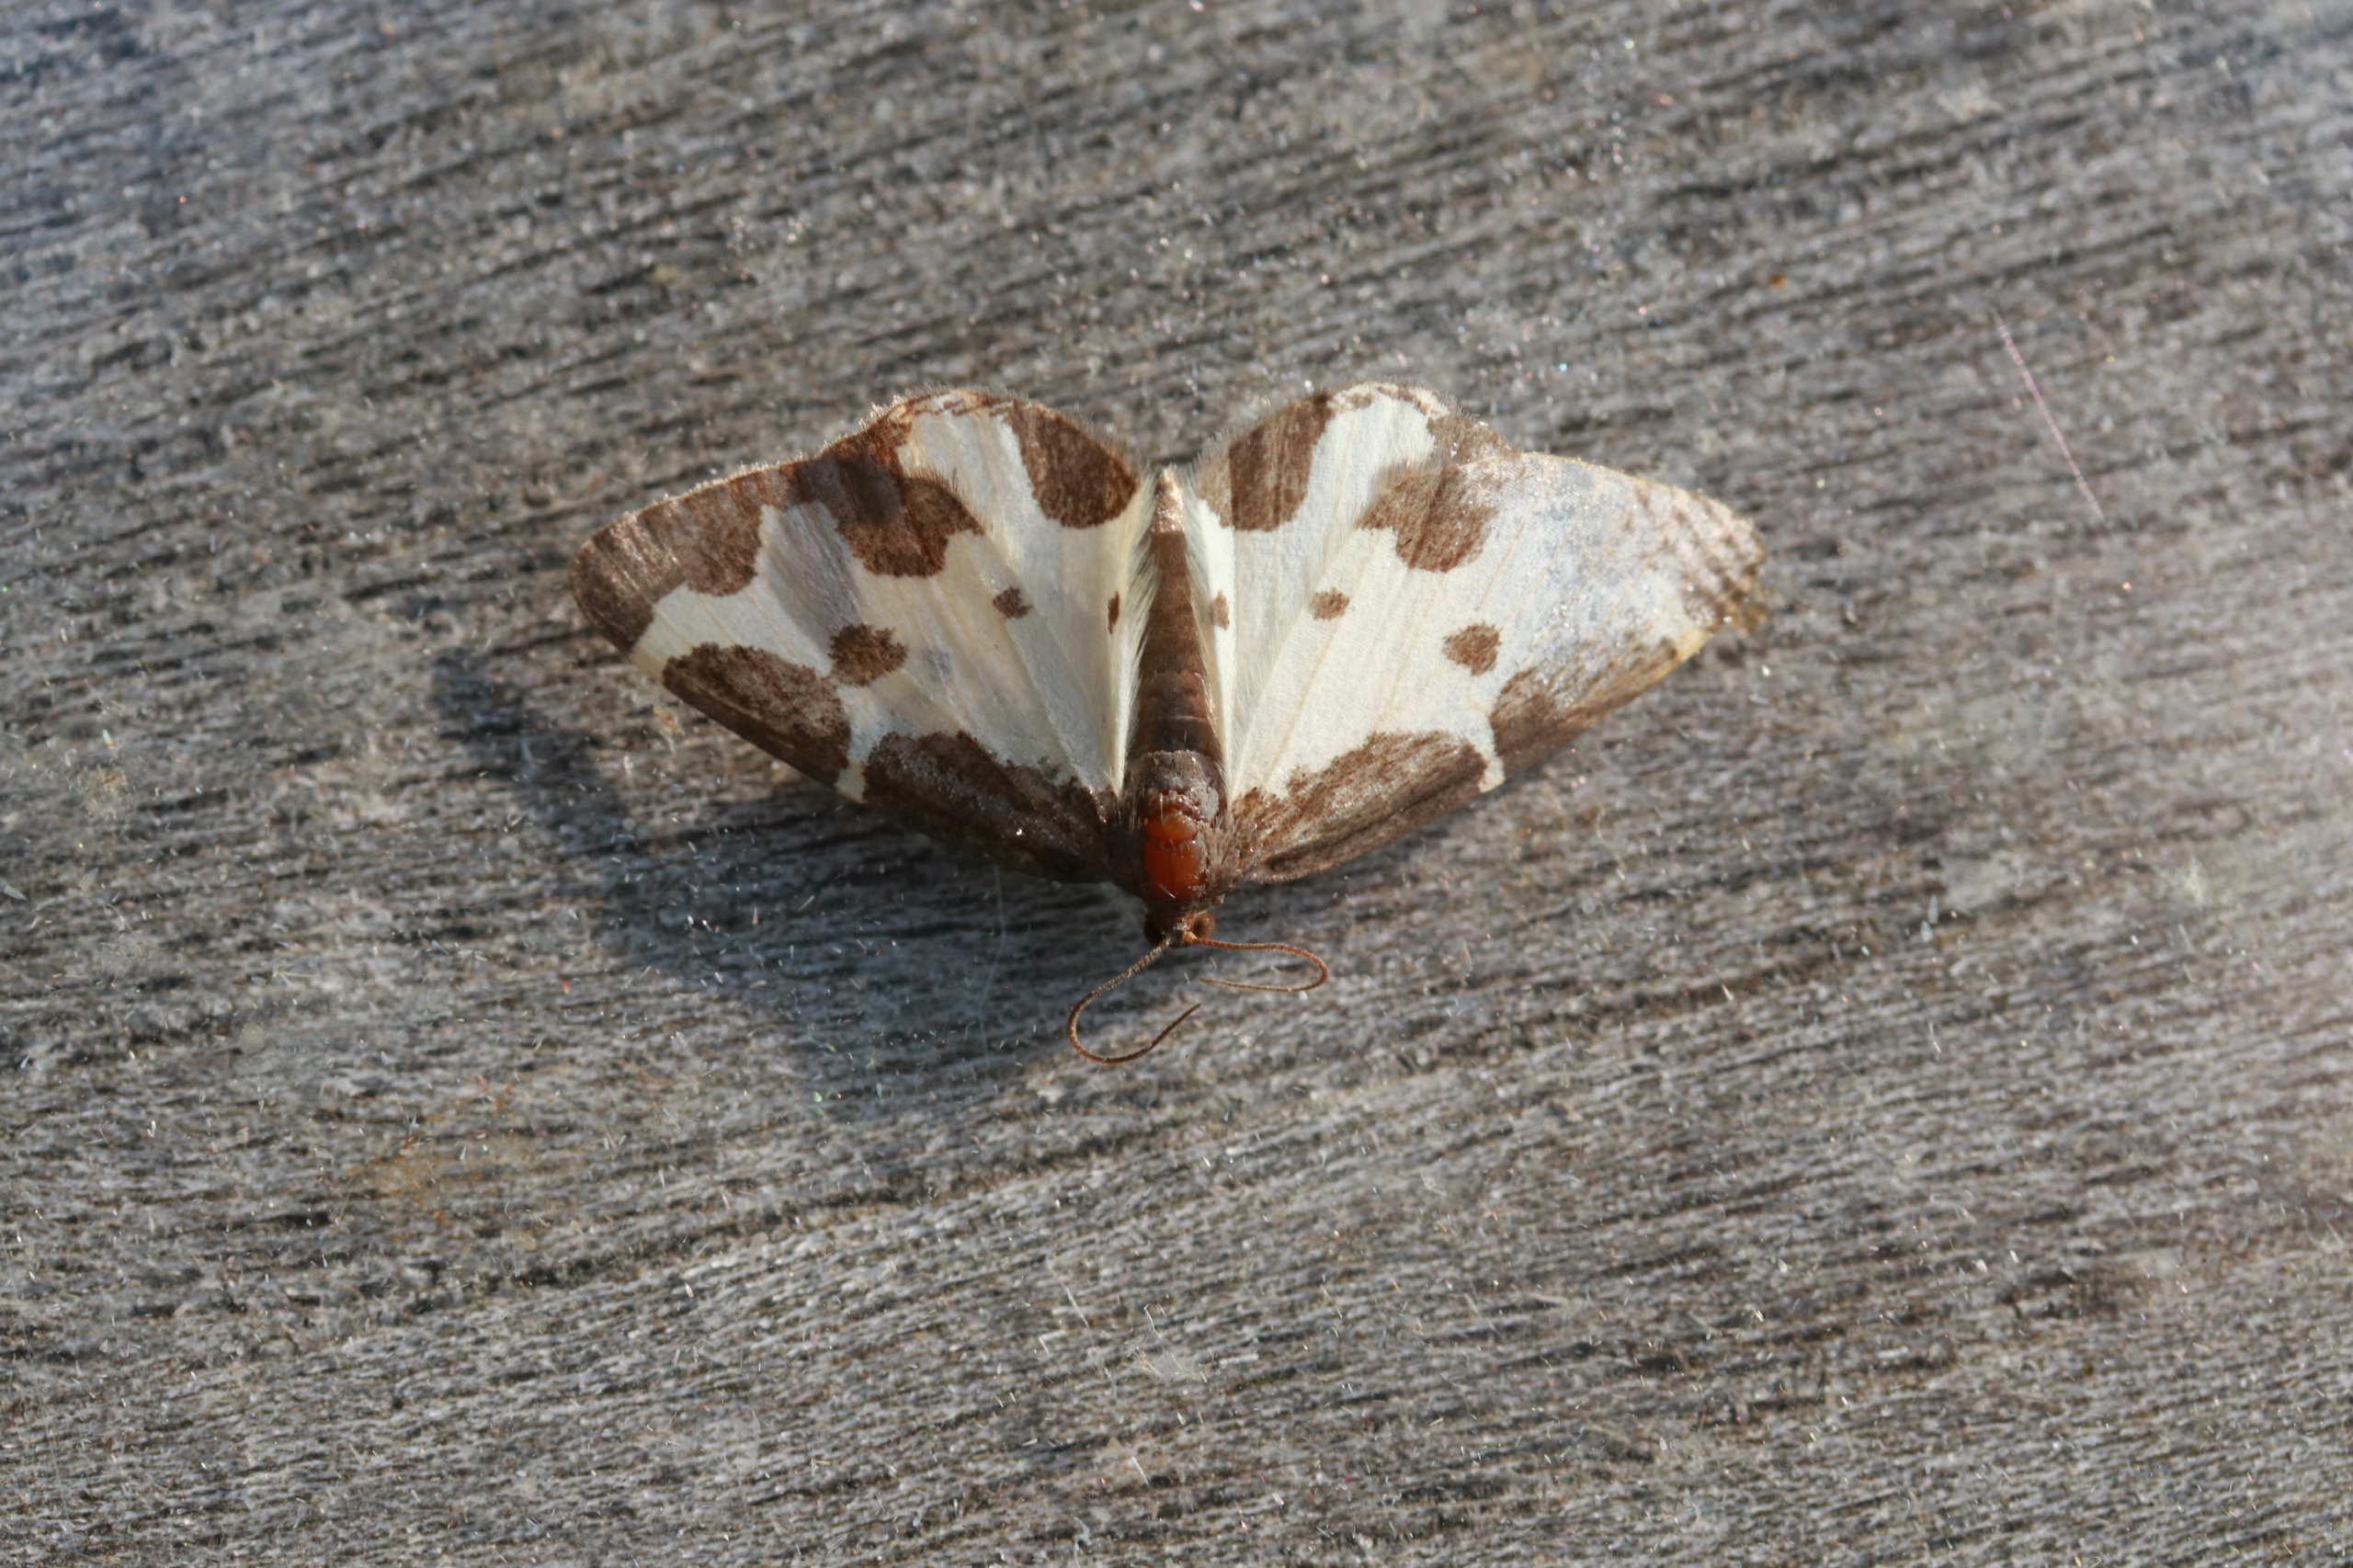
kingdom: Animalia
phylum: Arthropoda
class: Insecta
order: Lepidoptera
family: Geometridae
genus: Lomaspilis
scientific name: Lomaspilis marginata
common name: Sortrandet måler
